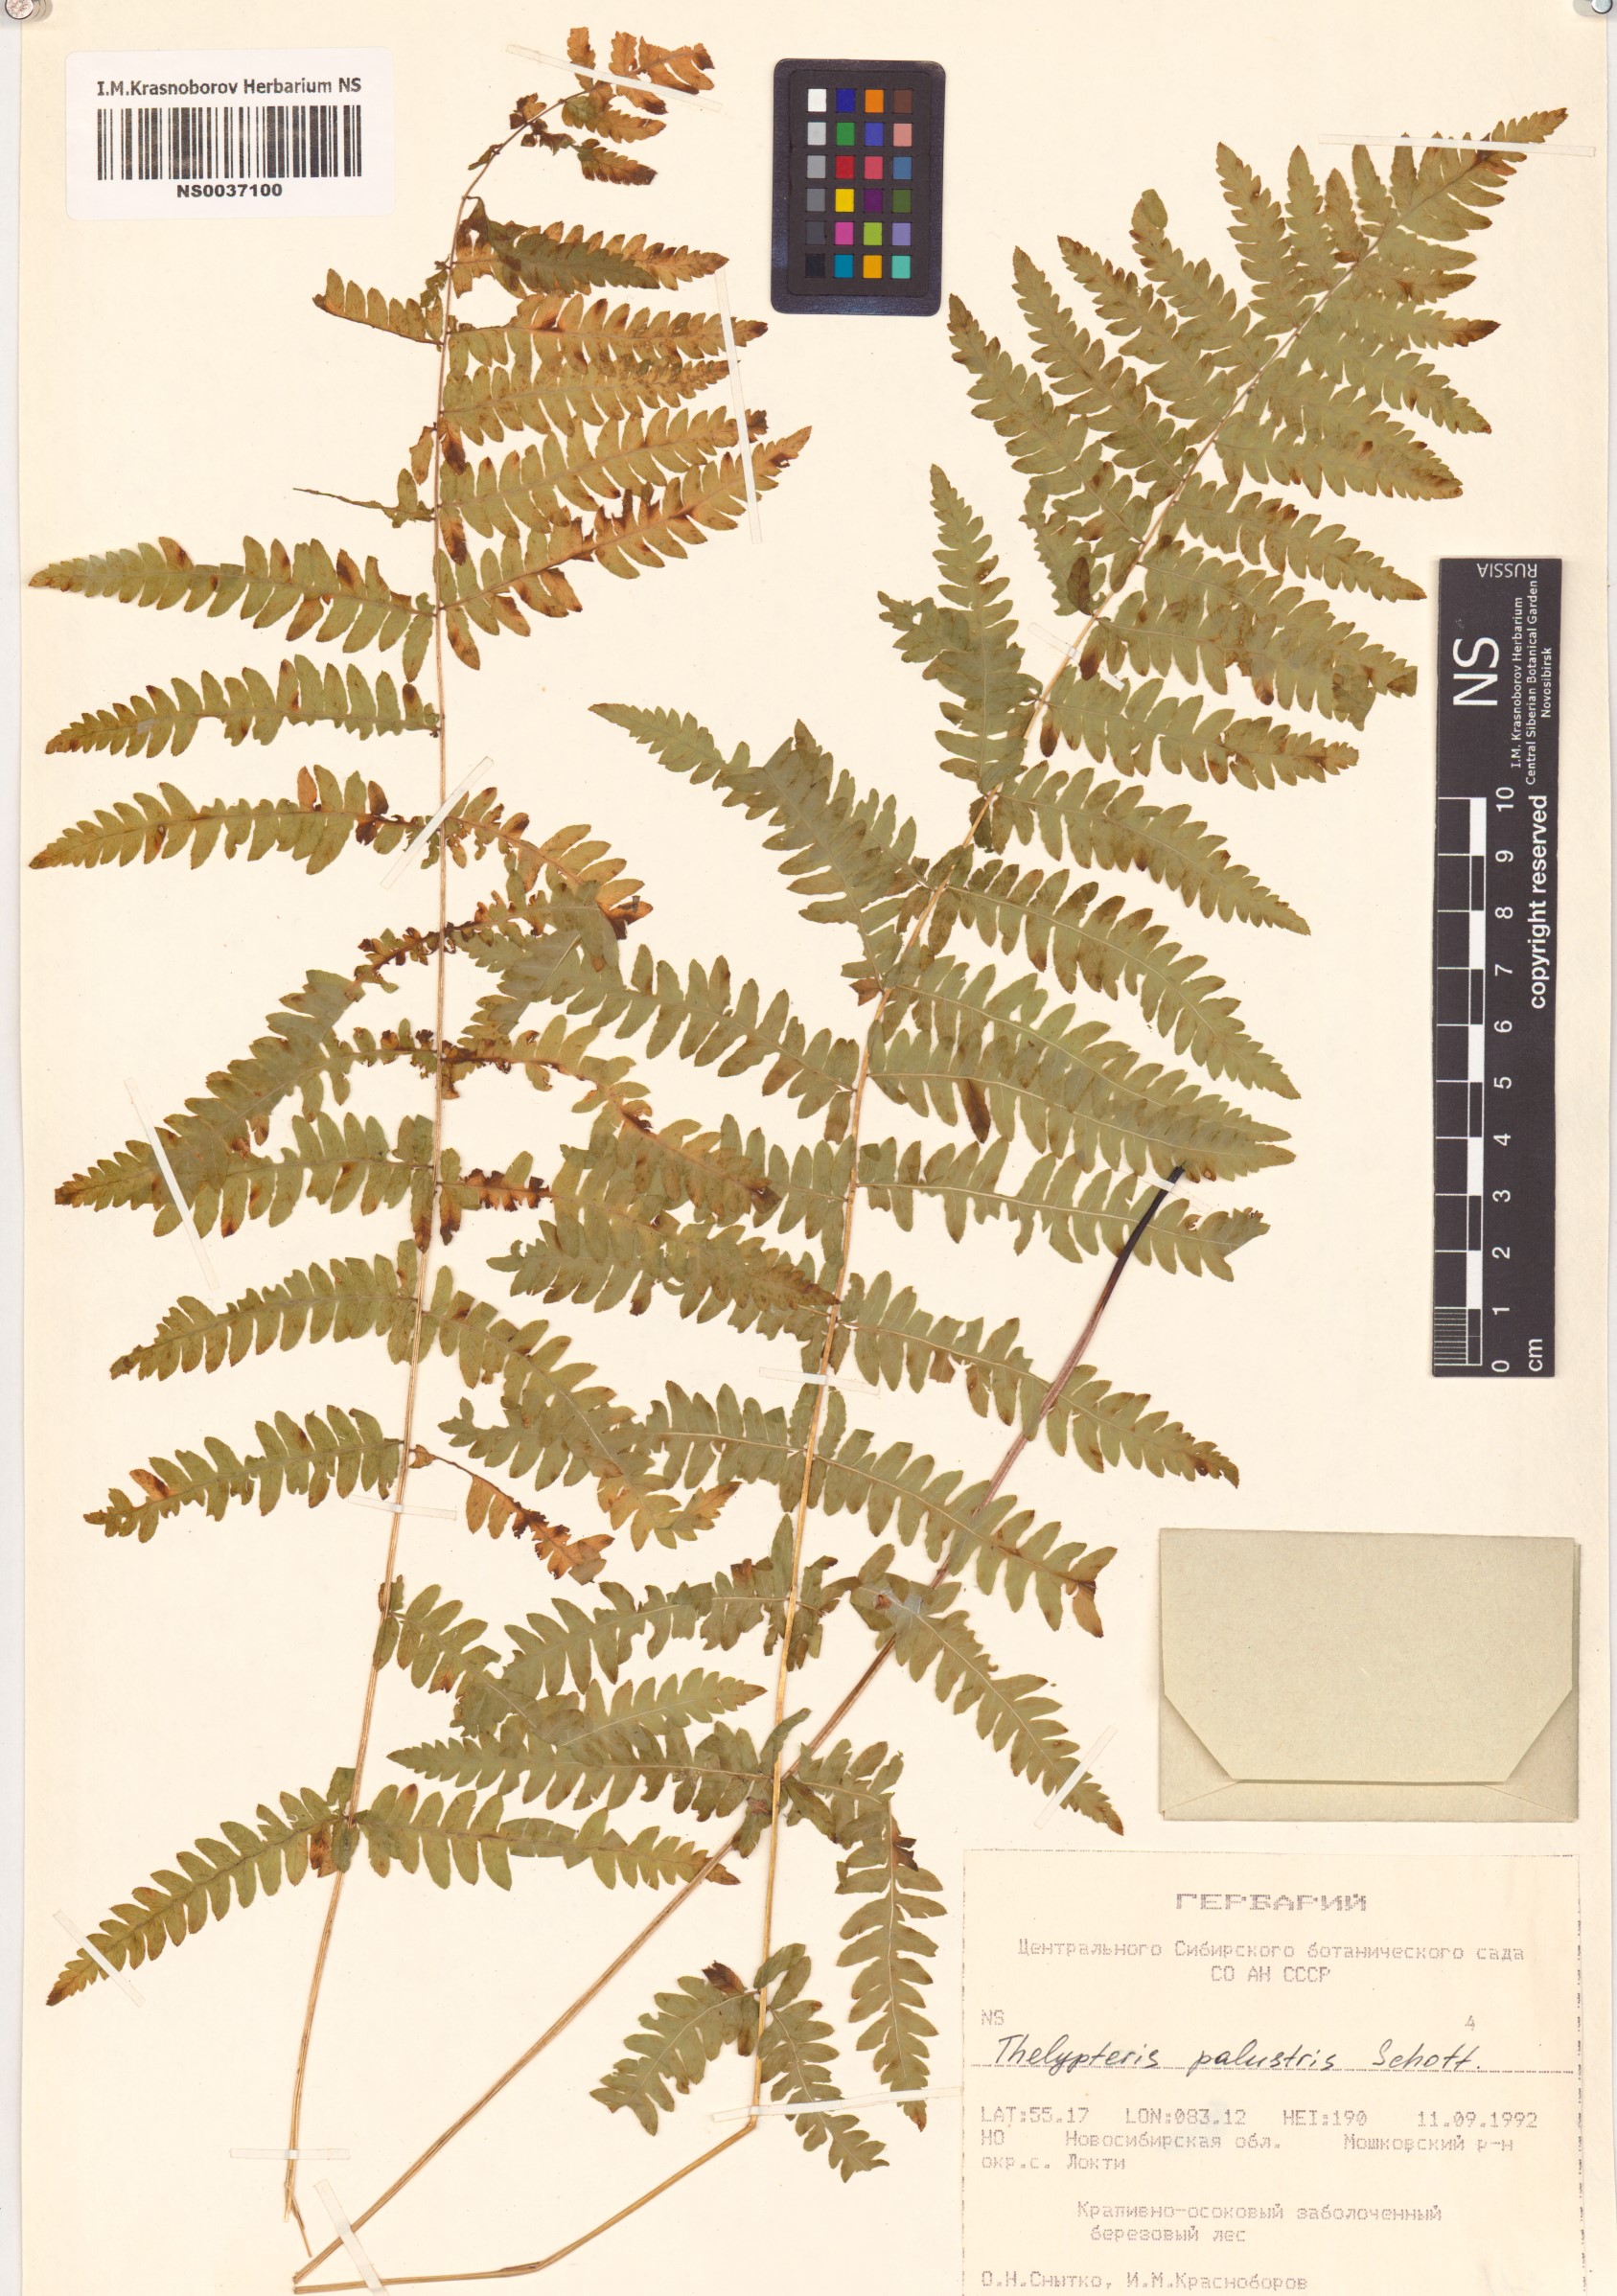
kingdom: Plantae
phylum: Tracheophyta
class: Polypodiopsida
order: Polypodiales
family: Thelypteridaceae
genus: Thelypteris
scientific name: Thelypteris palustris
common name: Marsh fern
